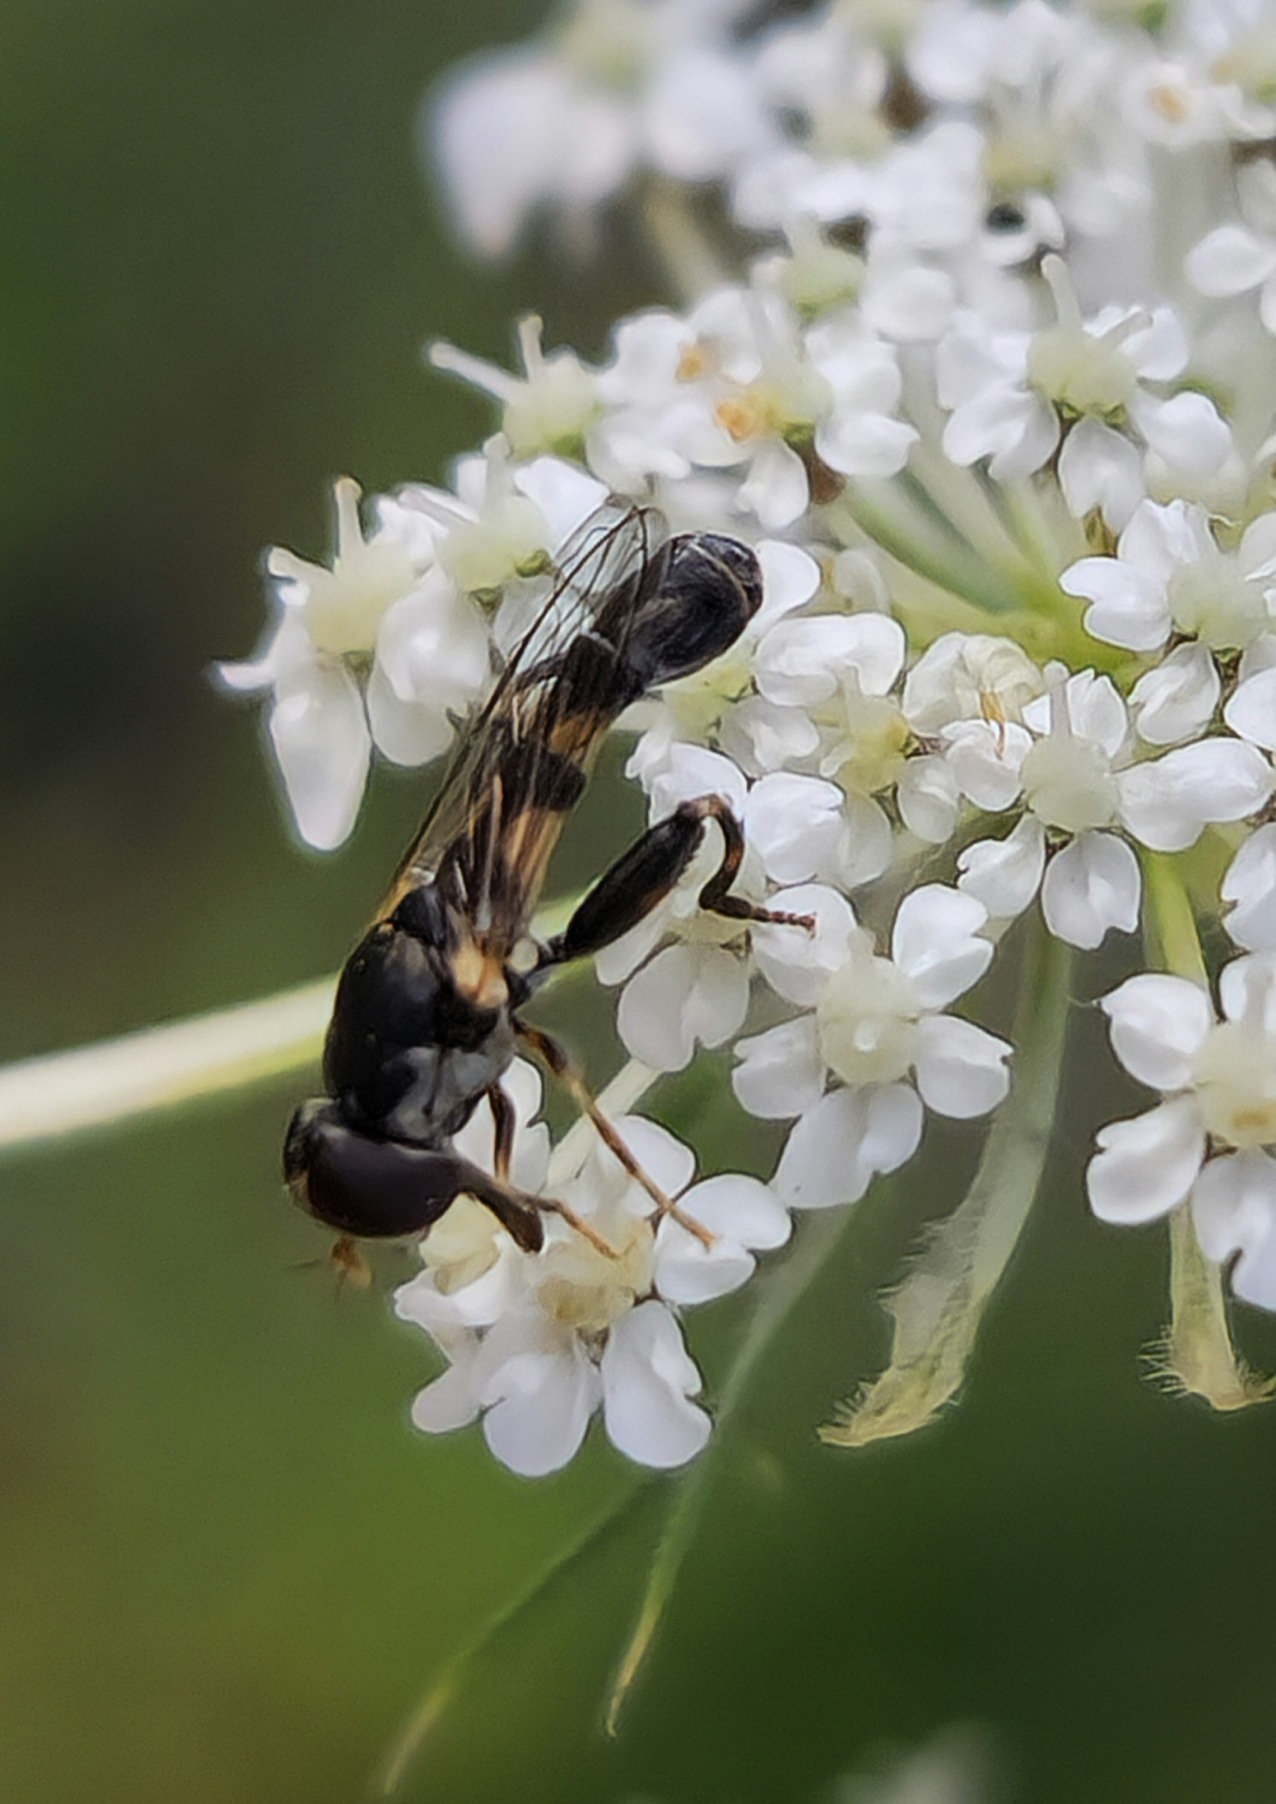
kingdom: Animalia
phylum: Arthropoda
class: Insecta
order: Diptera
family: Syrphidae
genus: Syritta
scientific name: Syritta pipiens
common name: Kompost-svirreflue
